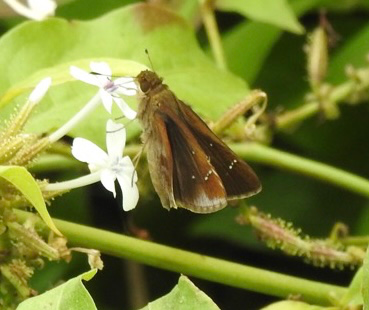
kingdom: Animalia
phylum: Arthropoda
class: Insecta
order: Lepidoptera
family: Hesperiidae
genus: Lerema
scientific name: Lerema accius
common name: Clouded Skipper
